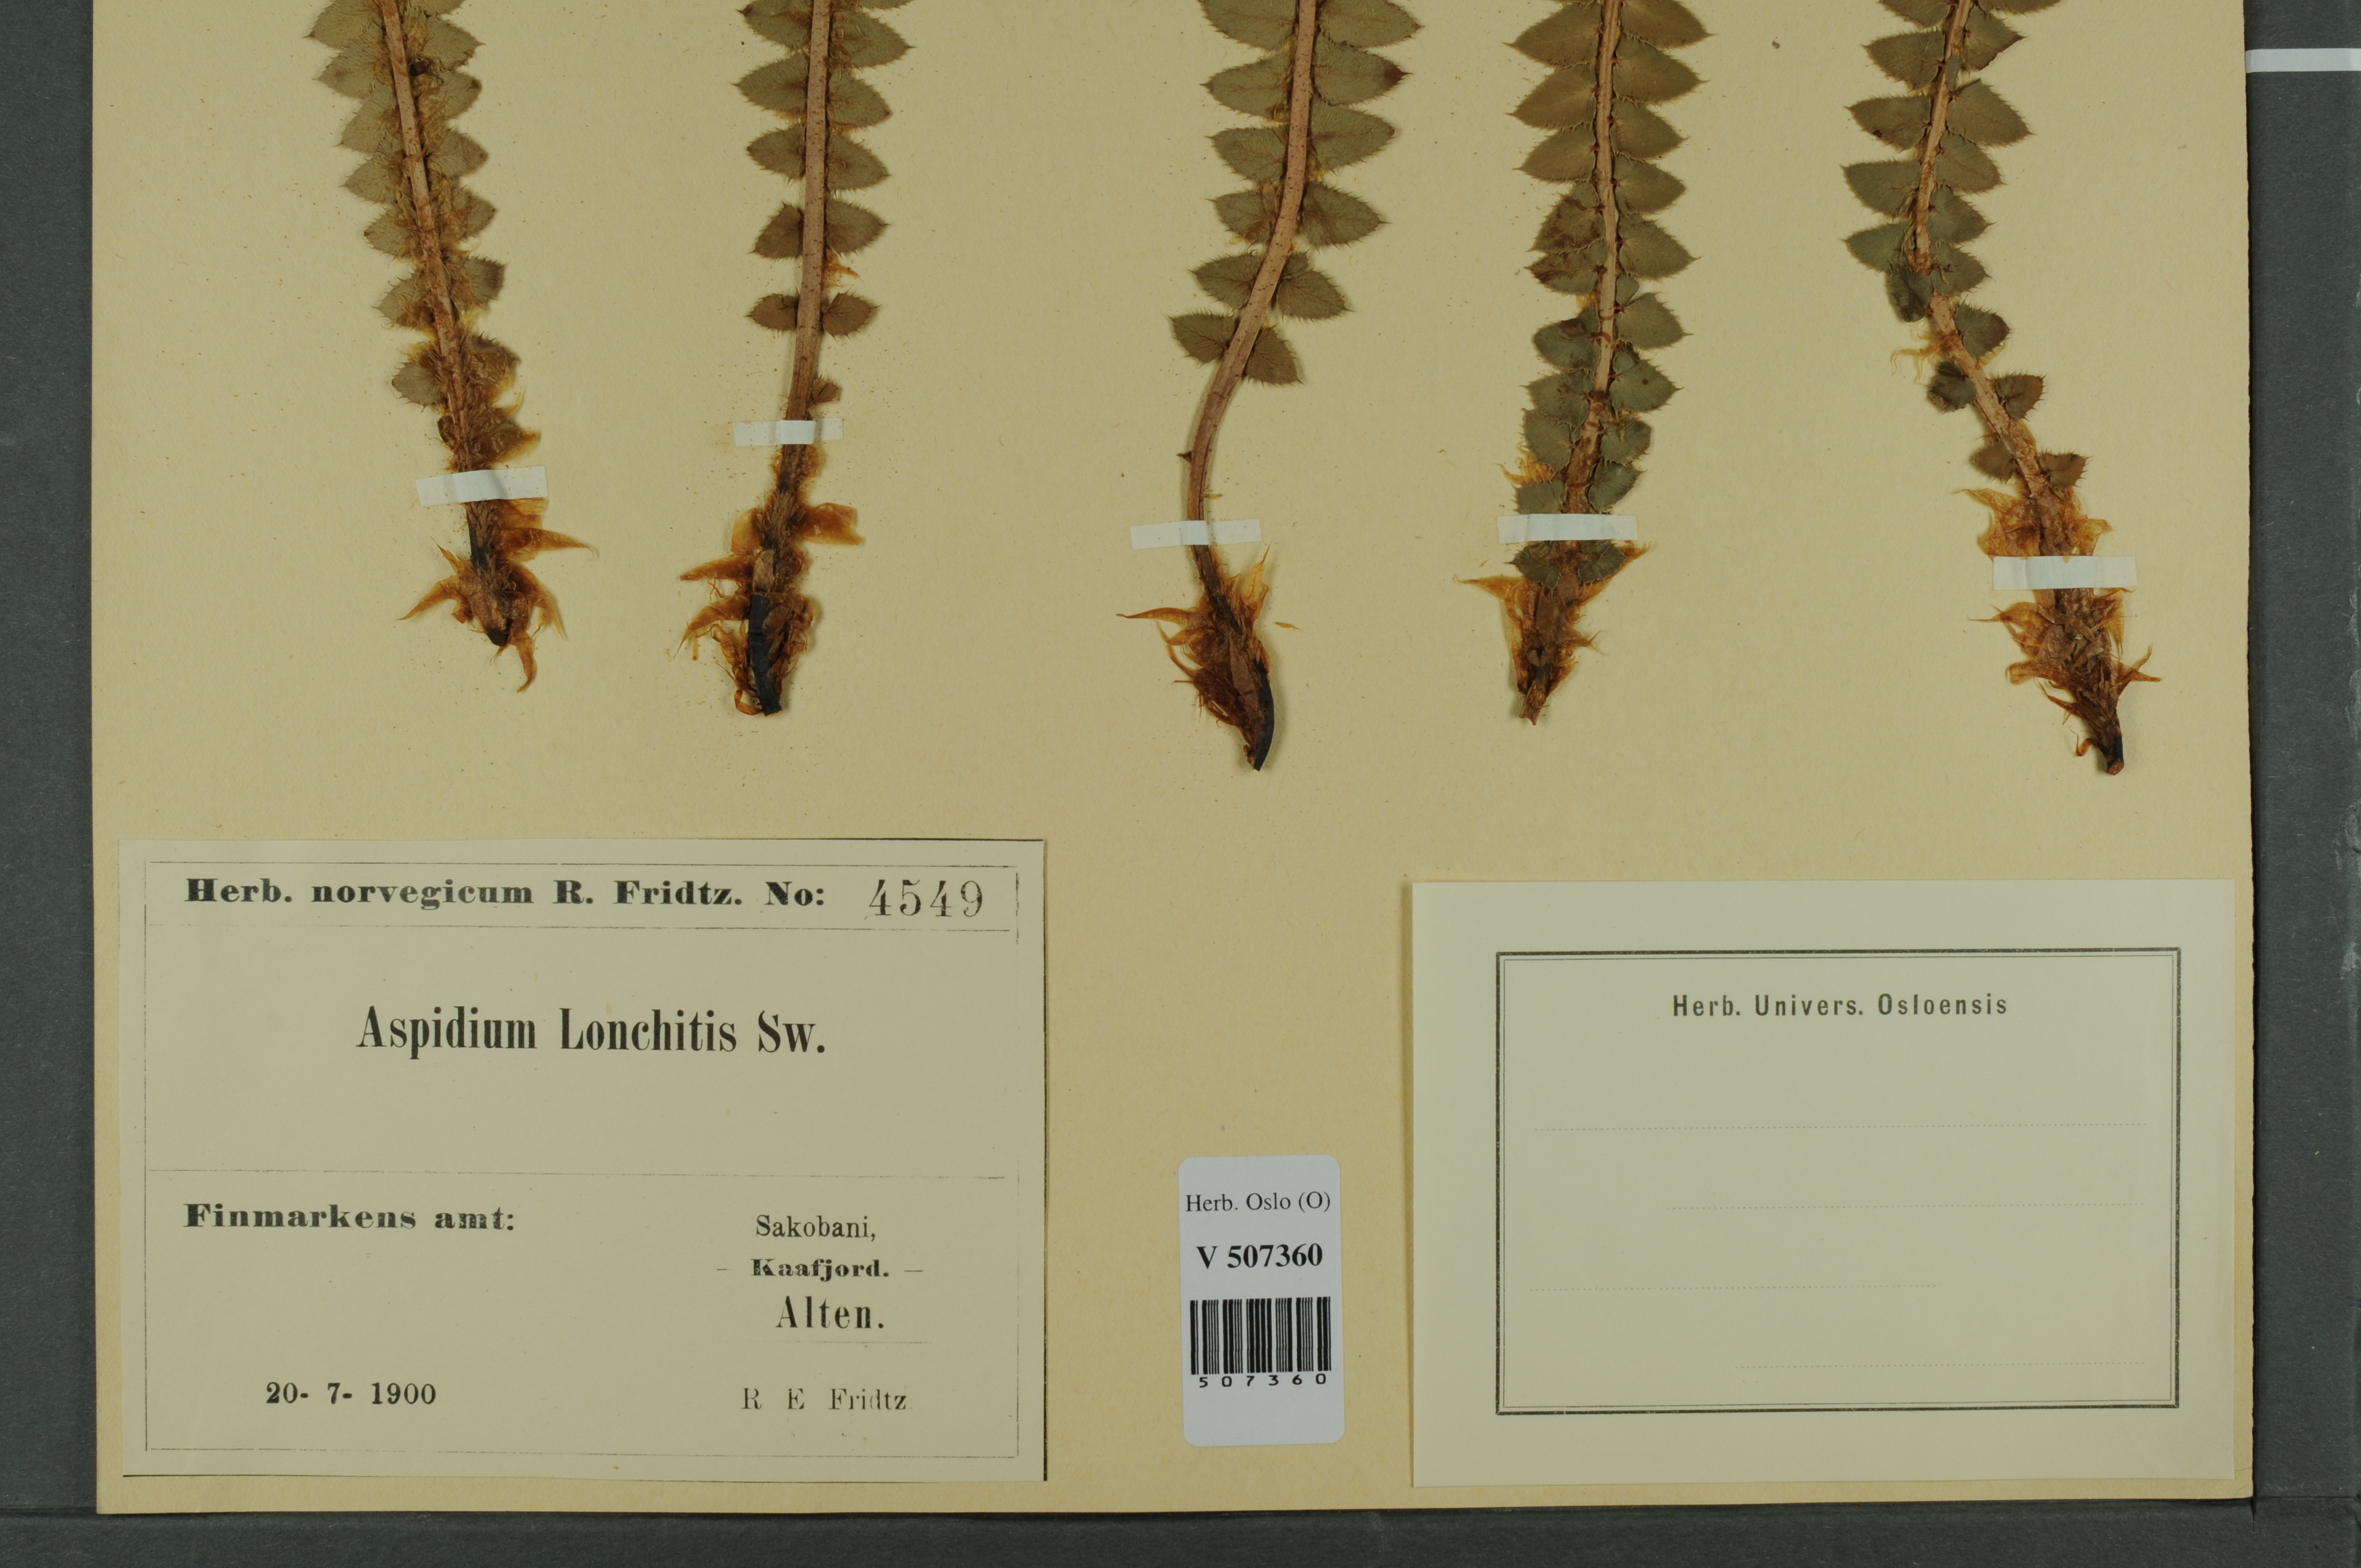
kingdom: Plantae
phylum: Tracheophyta
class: Polypodiopsida
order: Polypodiales
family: Dryopteridaceae
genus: Polystichum
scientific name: Polystichum lonchitis
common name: Holly fern
